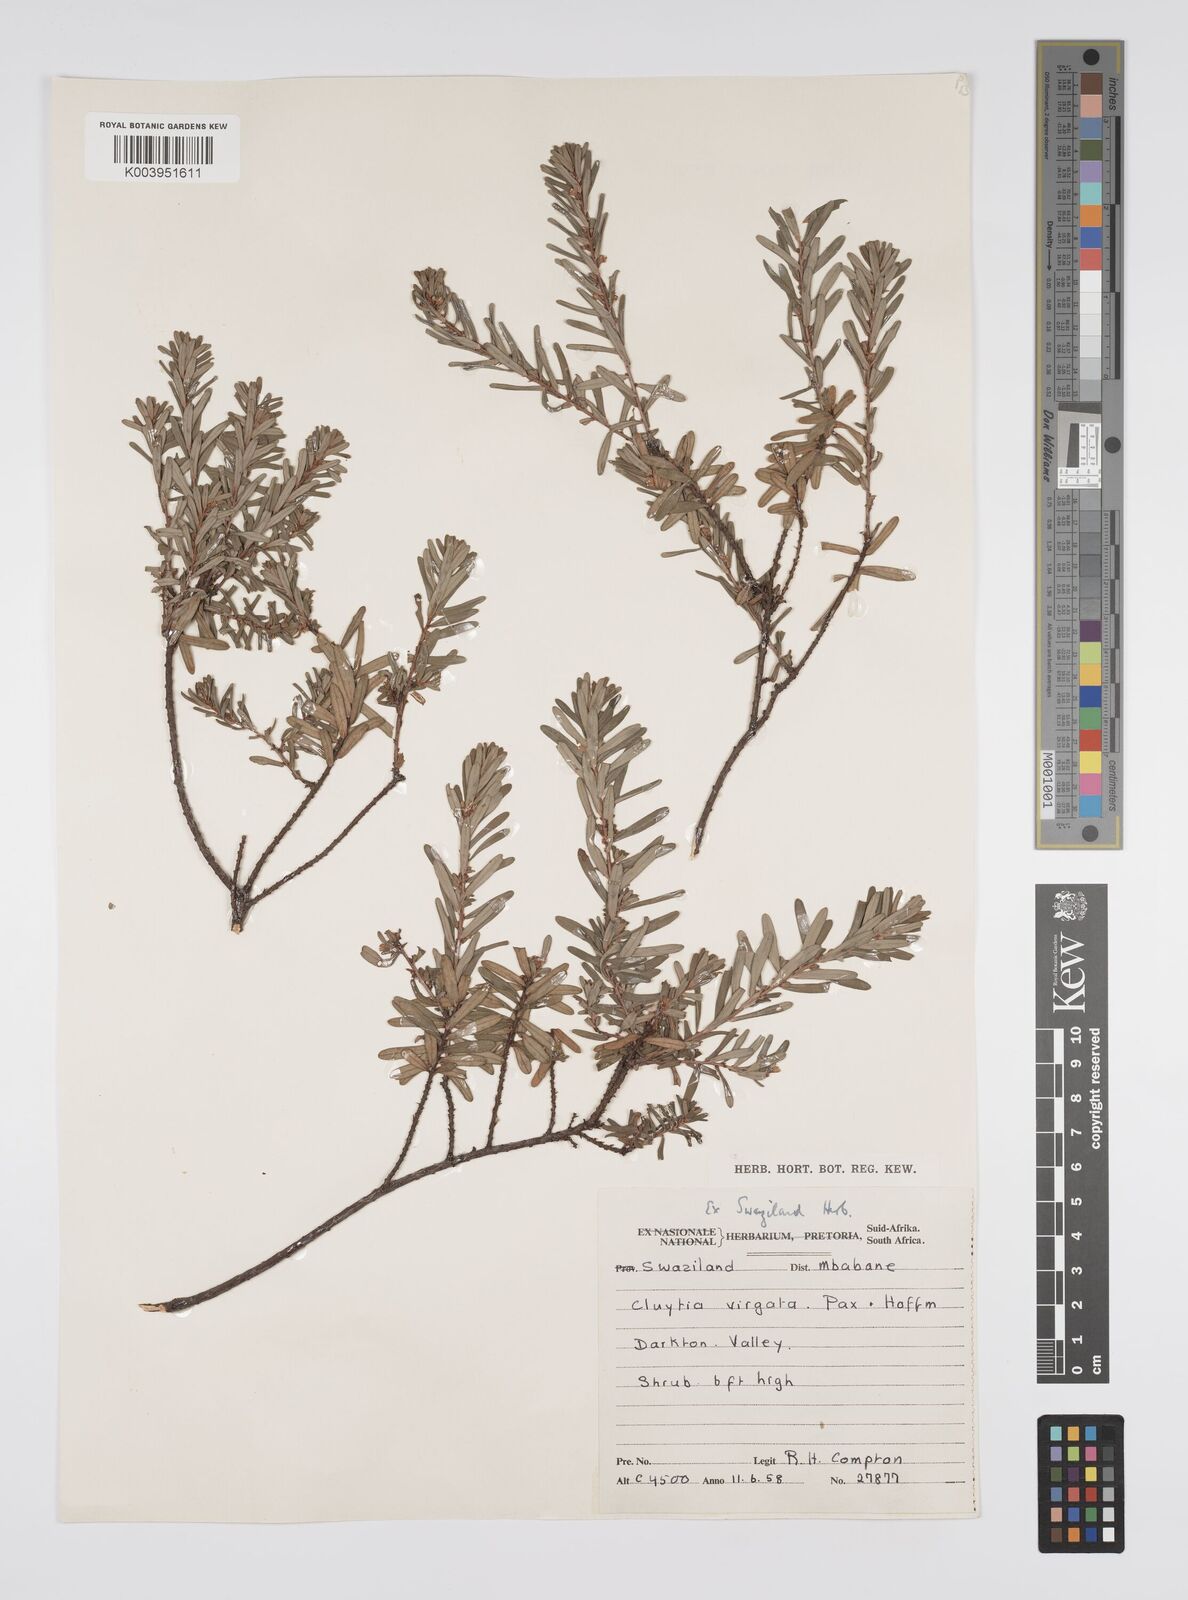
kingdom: Plantae
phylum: Tracheophyta
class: Magnoliopsida
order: Malpighiales
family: Peraceae
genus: Clutia
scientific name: Clutia virgata
